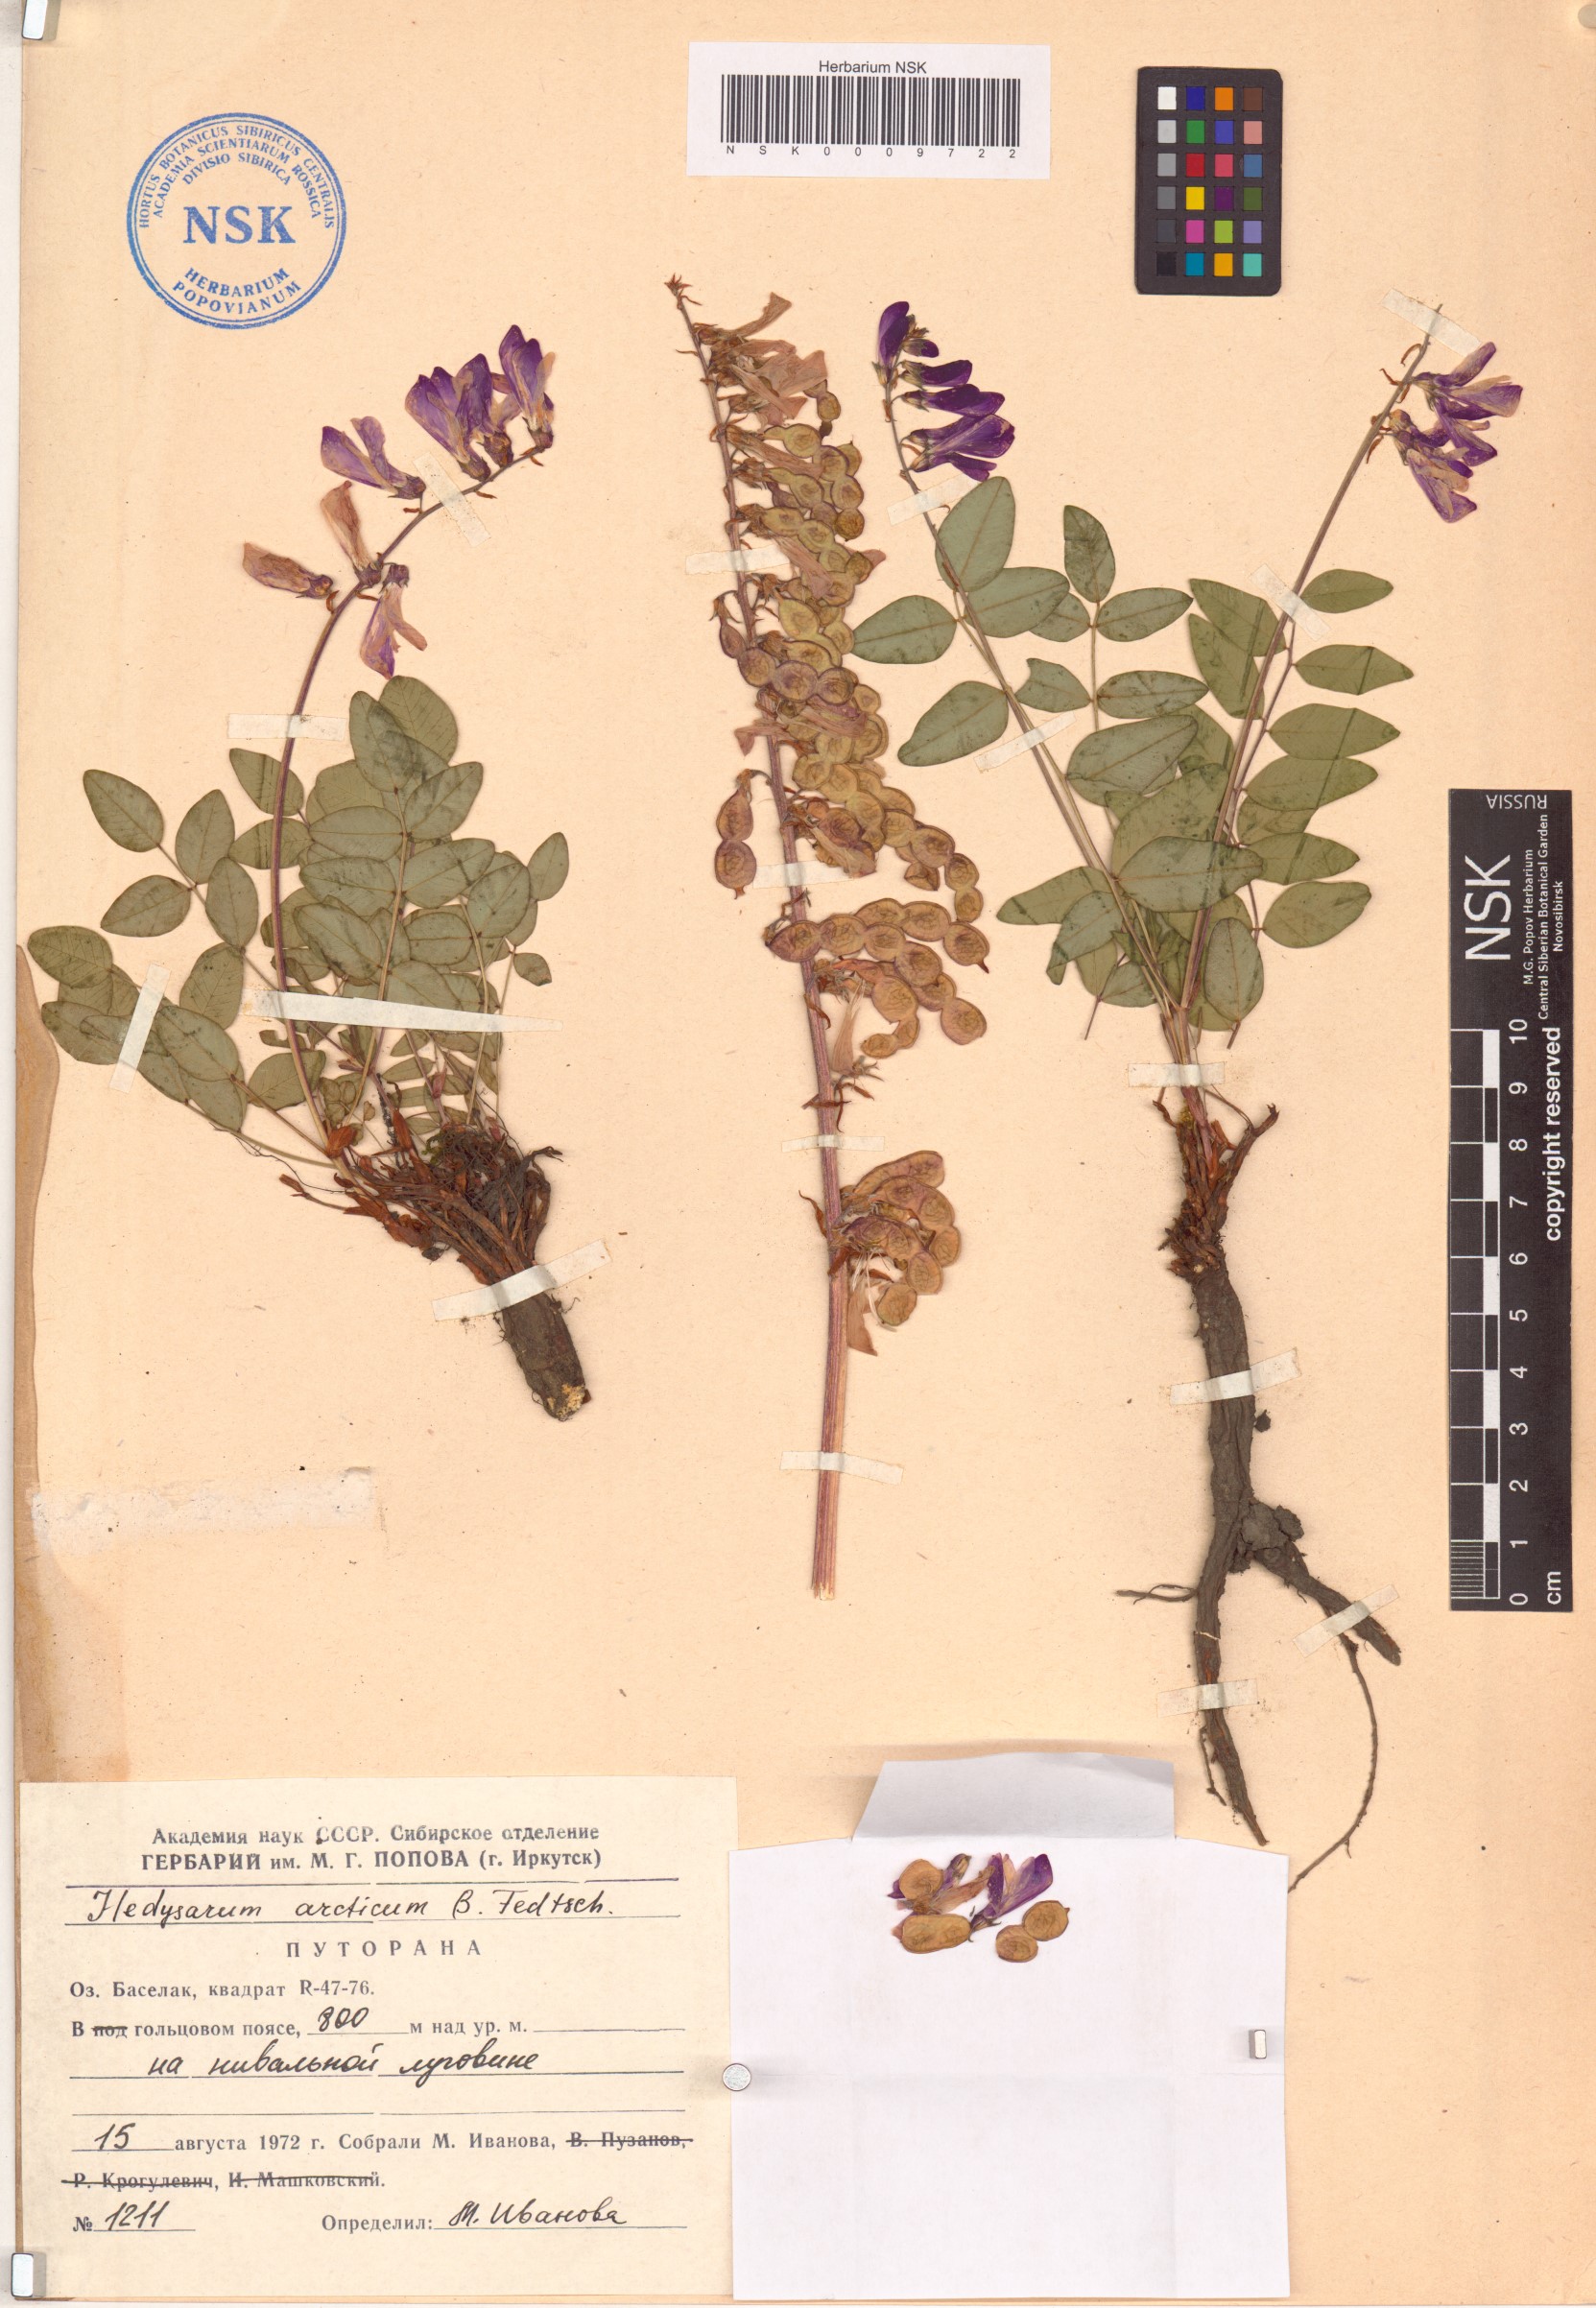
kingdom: Plantae
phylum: Tracheophyta
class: Magnoliopsida
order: Fabales
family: Fabaceae
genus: Hedysarum
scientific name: Hedysarum hedysaroides
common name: Alpine french-honeysuckle
